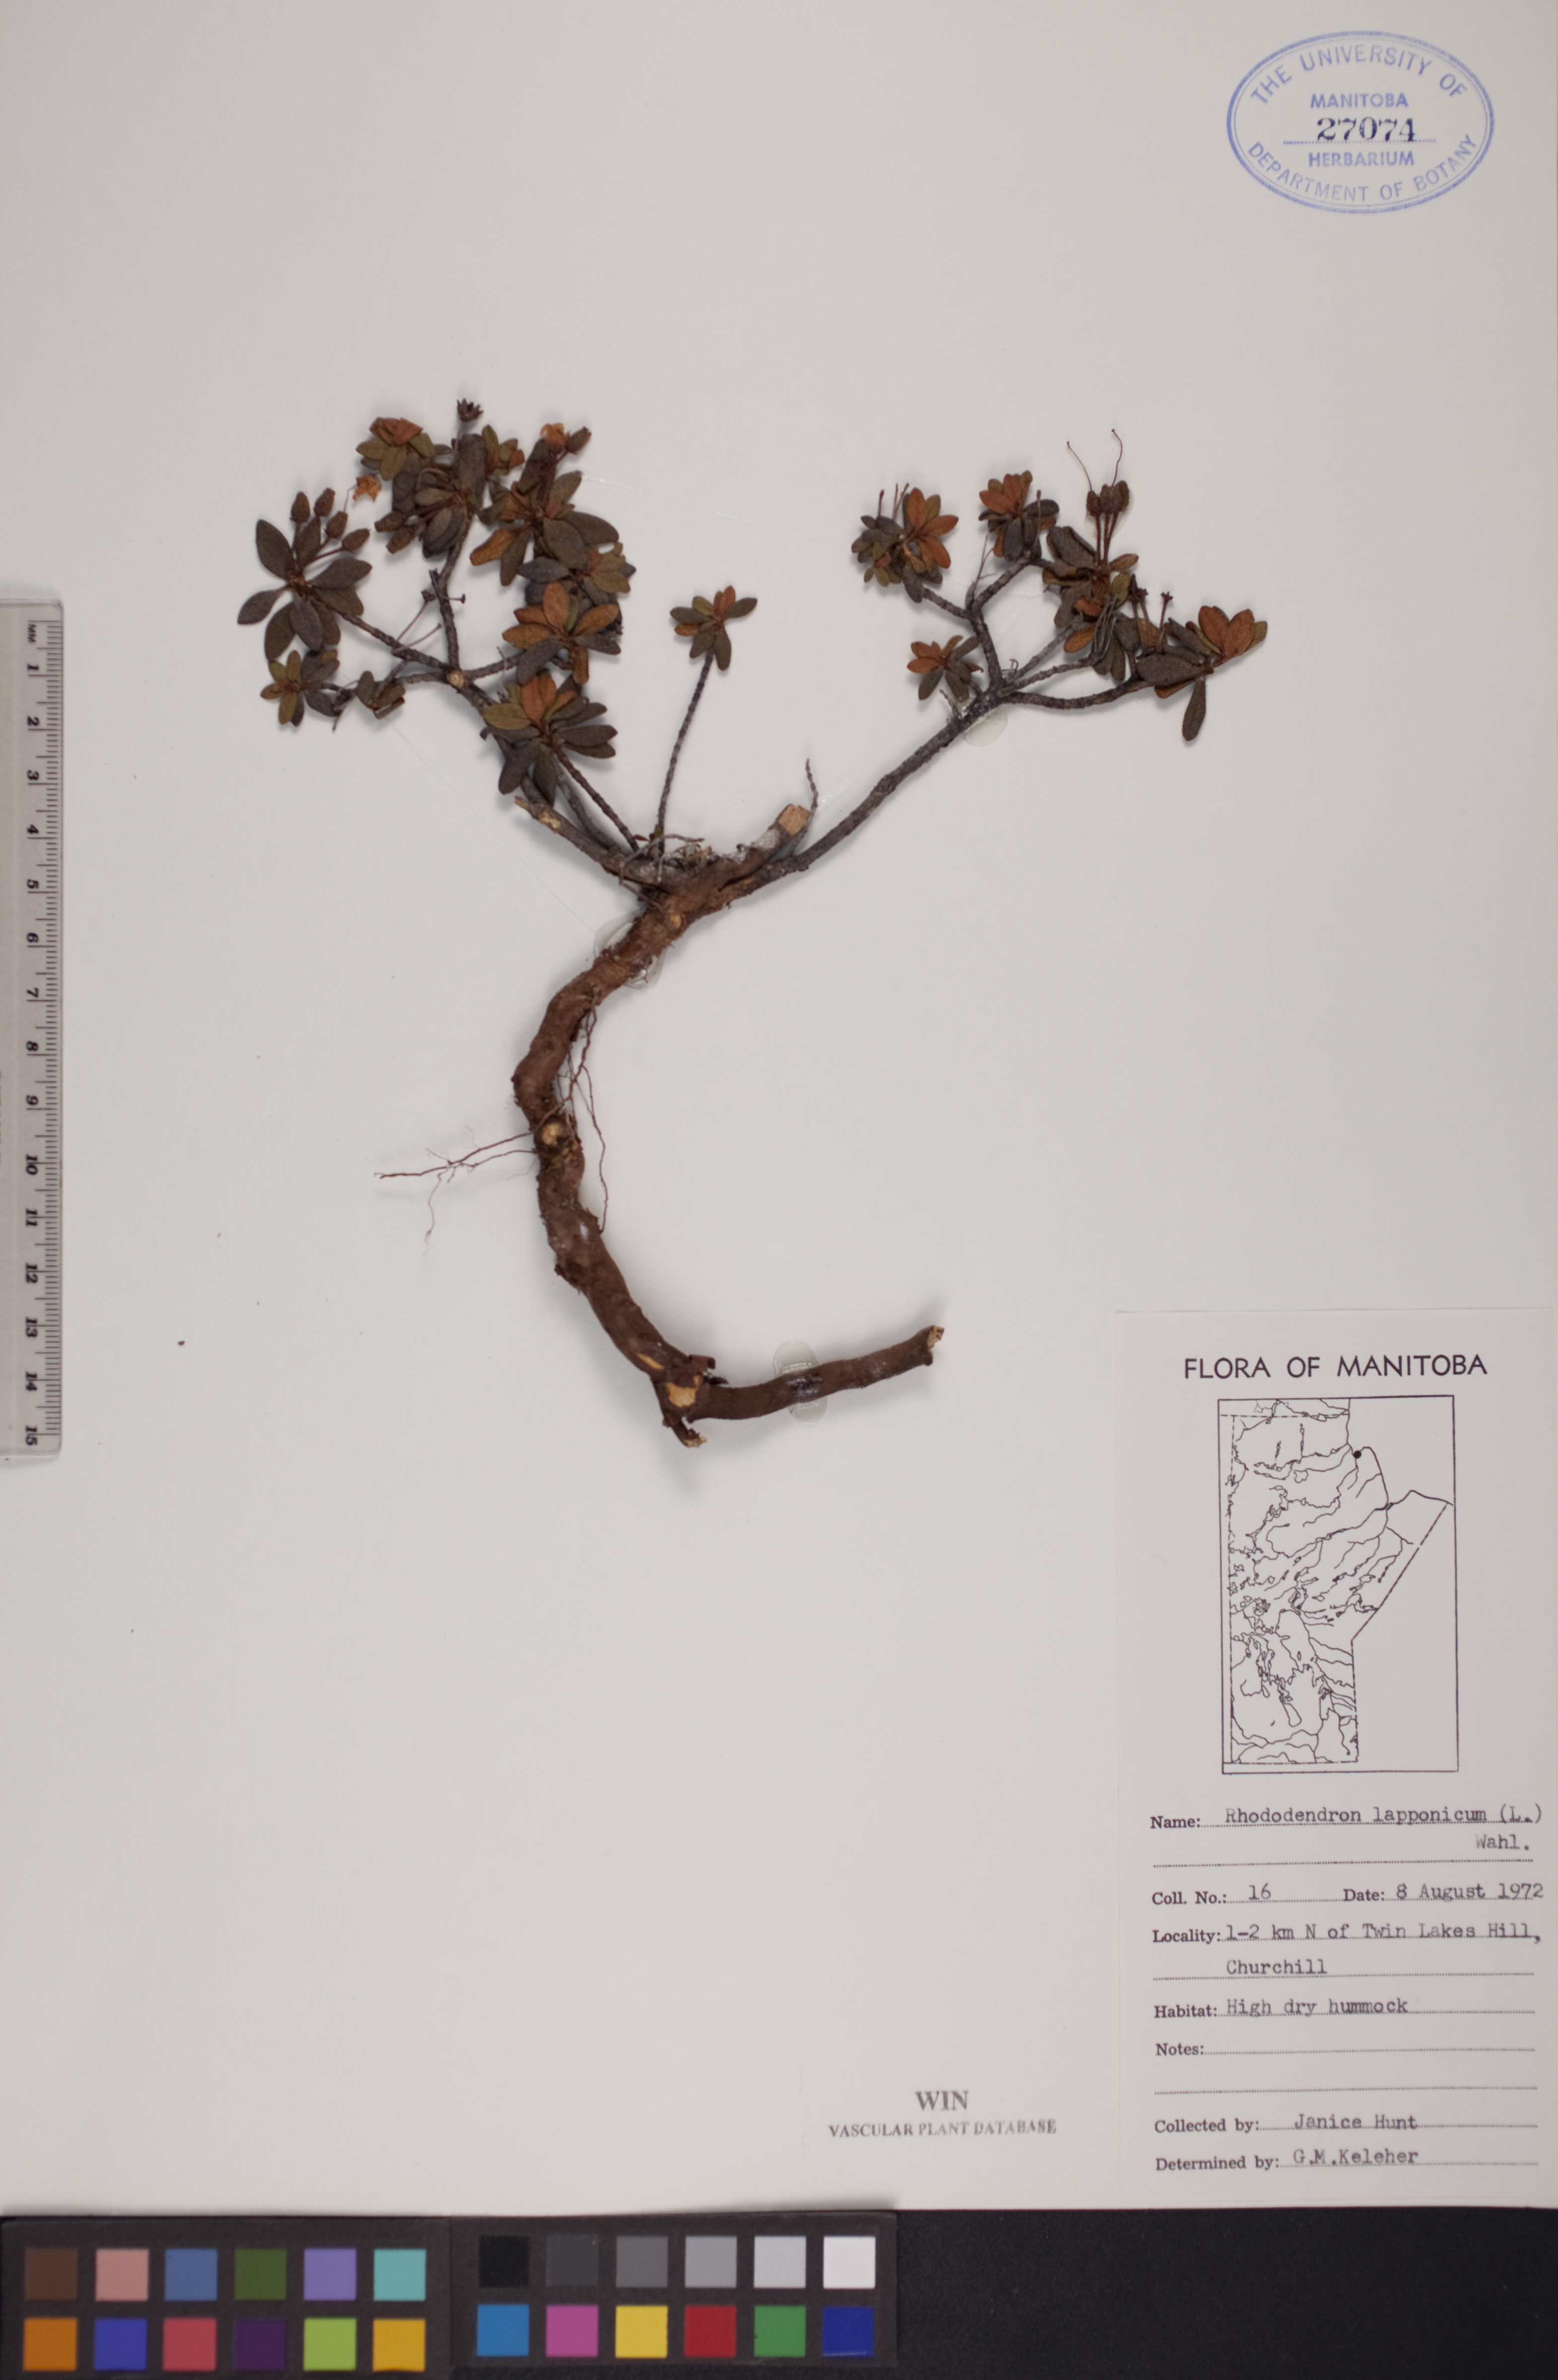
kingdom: Plantae
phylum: Tracheophyta
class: Magnoliopsida
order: Ericales
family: Ericaceae
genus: Rhododendron
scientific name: Rhododendron lapponicum
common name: Lapland rhododendron
